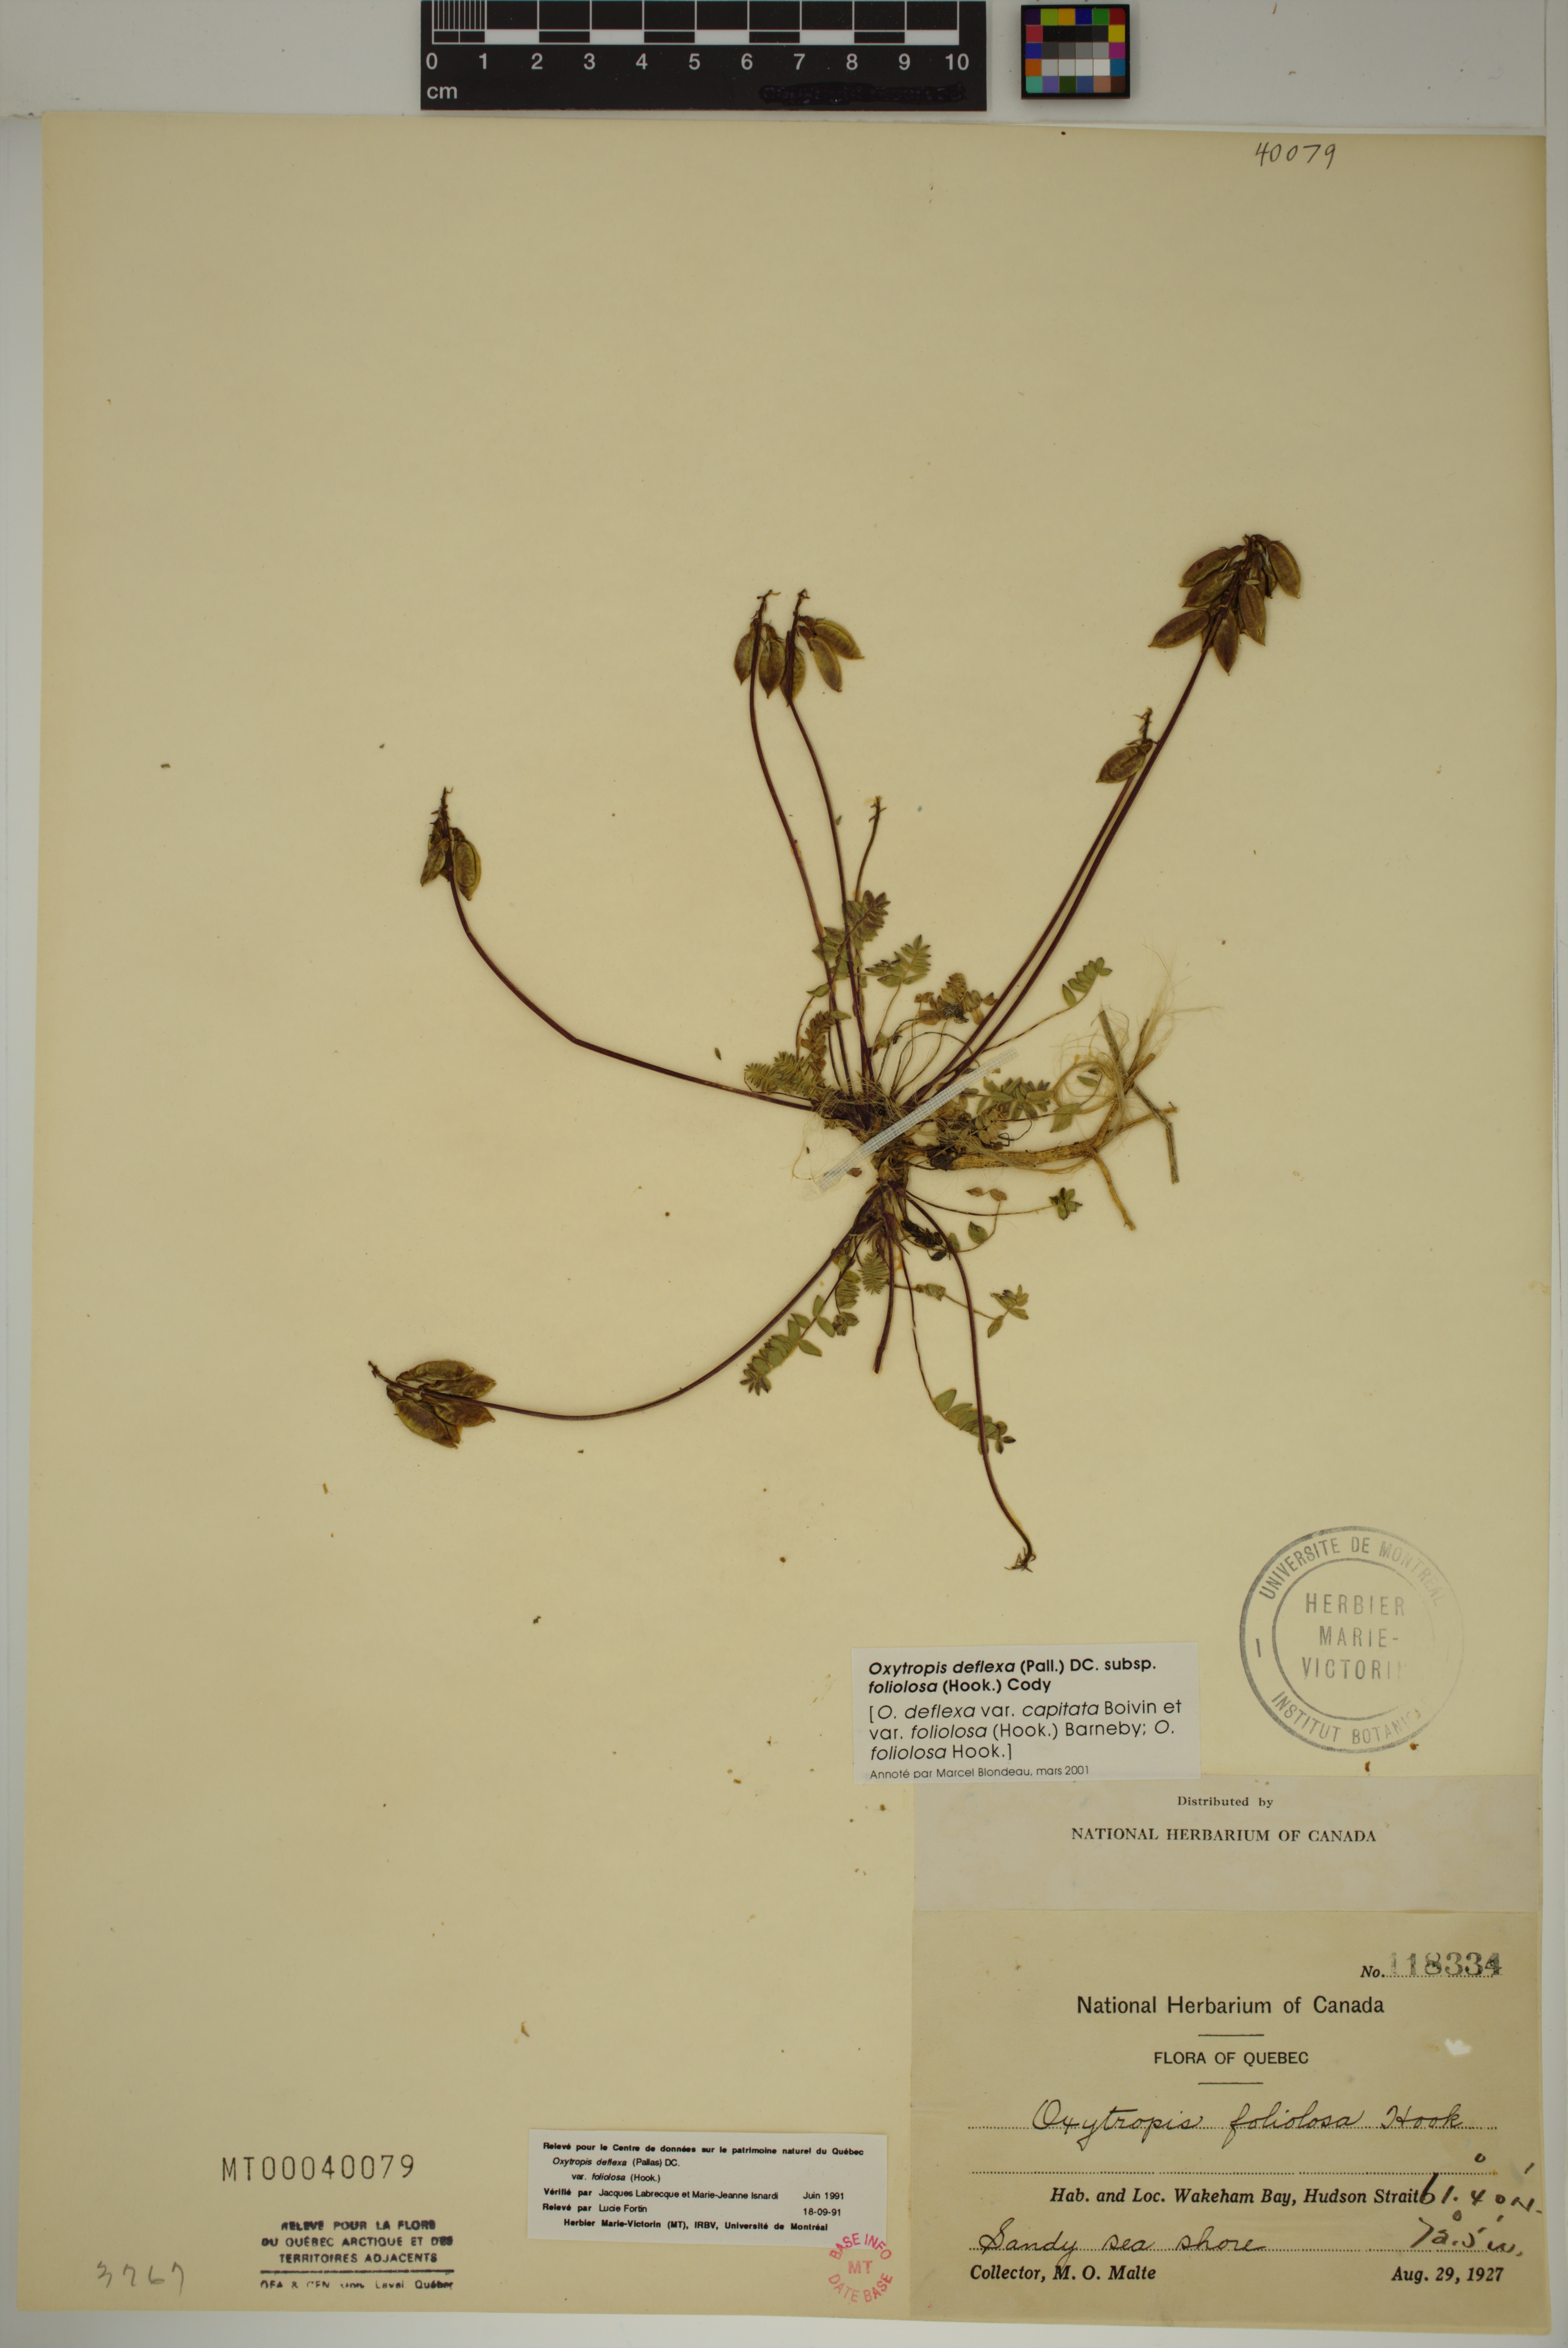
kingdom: Plantae
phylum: Tracheophyta
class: Magnoliopsida
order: Fabales
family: Fabaceae
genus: Oxytropis
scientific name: Oxytropis deflexa
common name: Stemmed oxytrope
